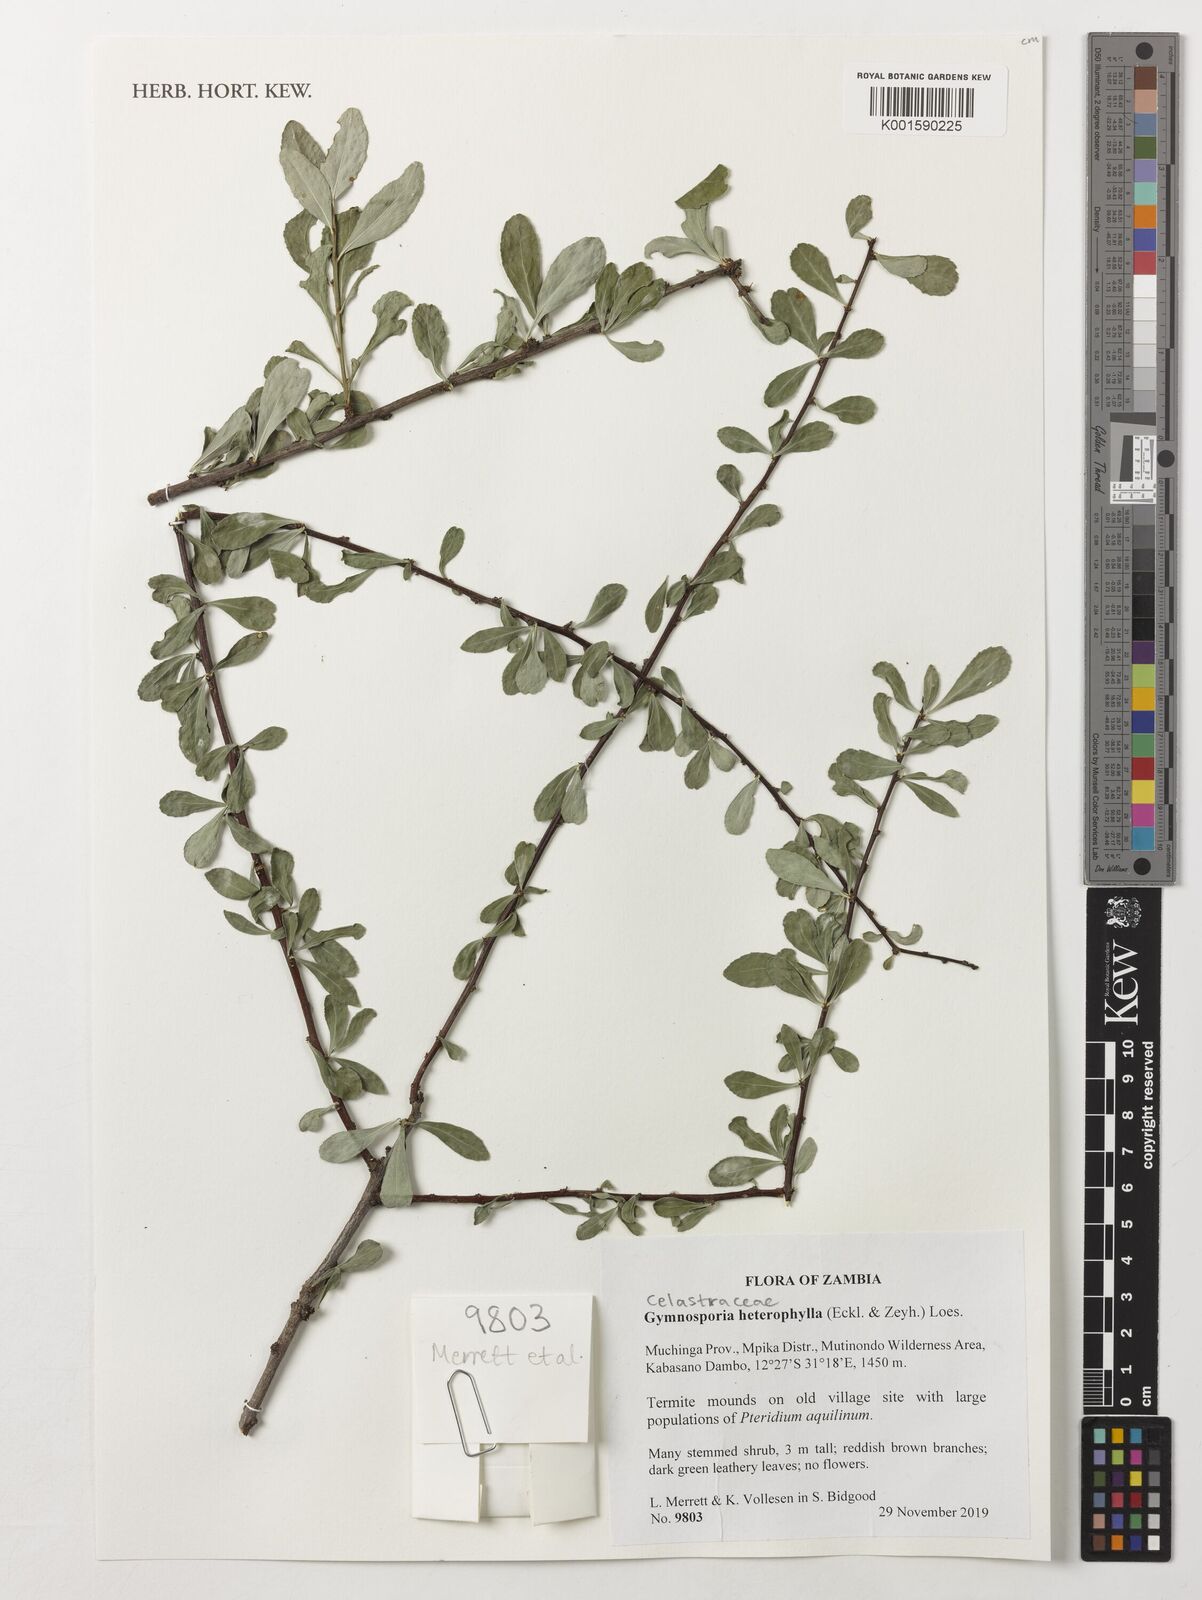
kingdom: Plantae
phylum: Tracheophyta
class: Magnoliopsida
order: Celastrales
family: Celastraceae
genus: Gymnosporia
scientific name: Gymnosporia heterophylla
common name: Angle-stem spikethorn
